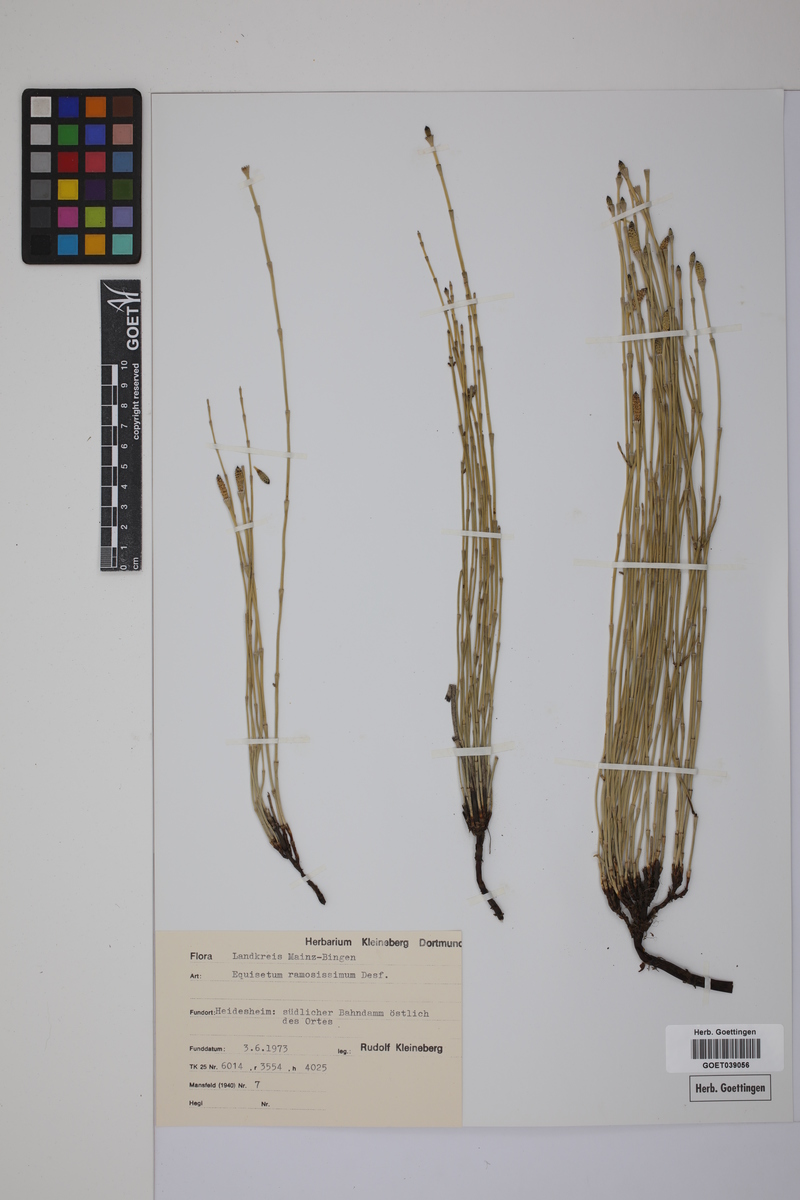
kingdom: Plantae
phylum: Tracheophyta
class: Polypodiopsida
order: Equisetales
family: Equisetaceae
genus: Equisetum
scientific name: Equisetum giganteum
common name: Giant horsetail
